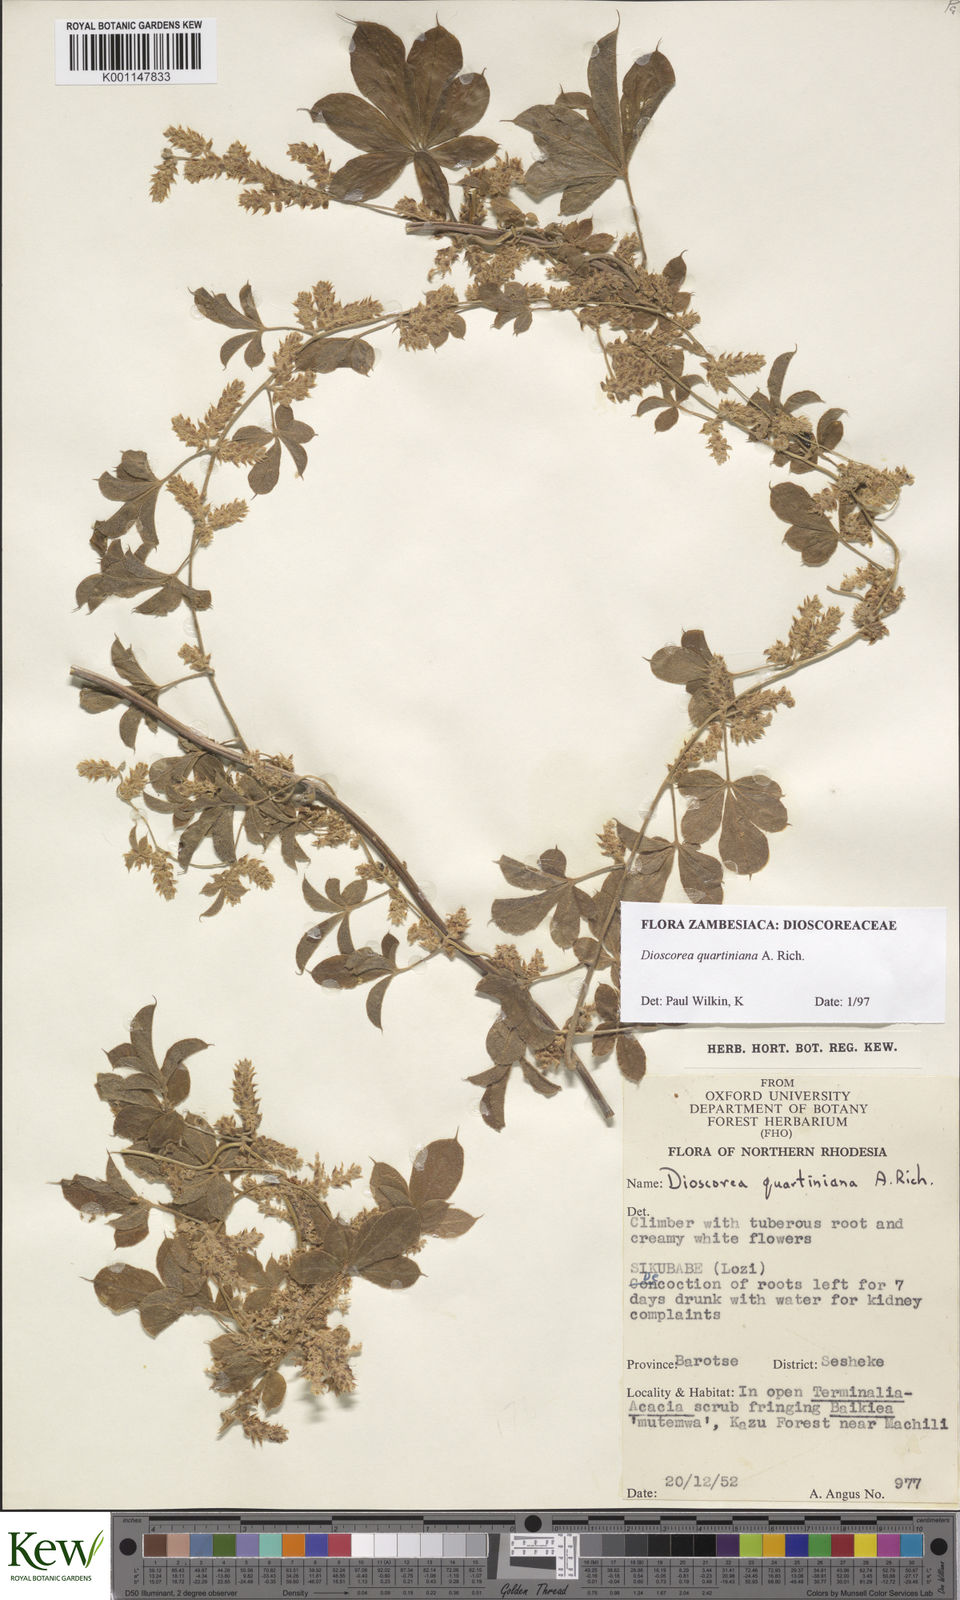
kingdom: Plantae
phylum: Tracheophyta
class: Liliopsida
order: Dioscoreales
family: Dioscoreaceae
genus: Dioscorea
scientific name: Dioscorea quartiniana
